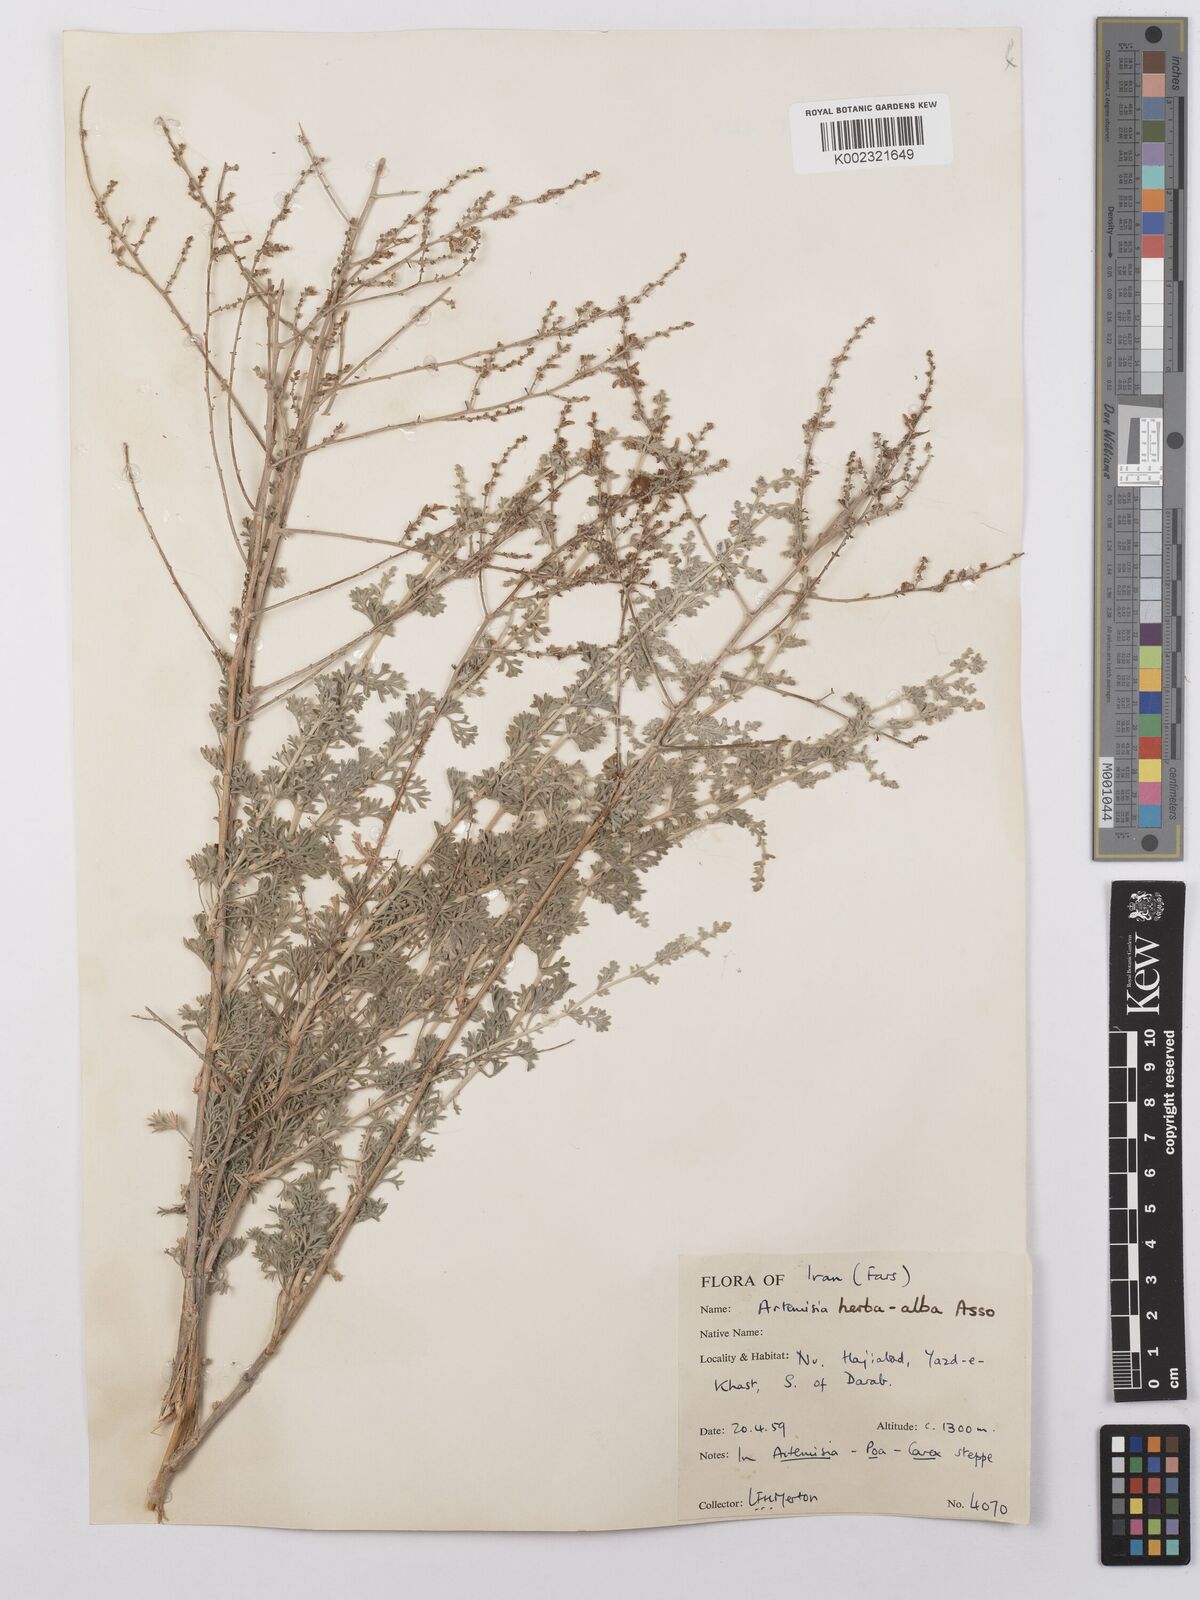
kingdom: Plantae
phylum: Tracheophyta
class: Magnoliopsida
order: Asterales
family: Asteraceae
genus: Artemisia
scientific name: Artemisia herba-alba
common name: White wormwood
